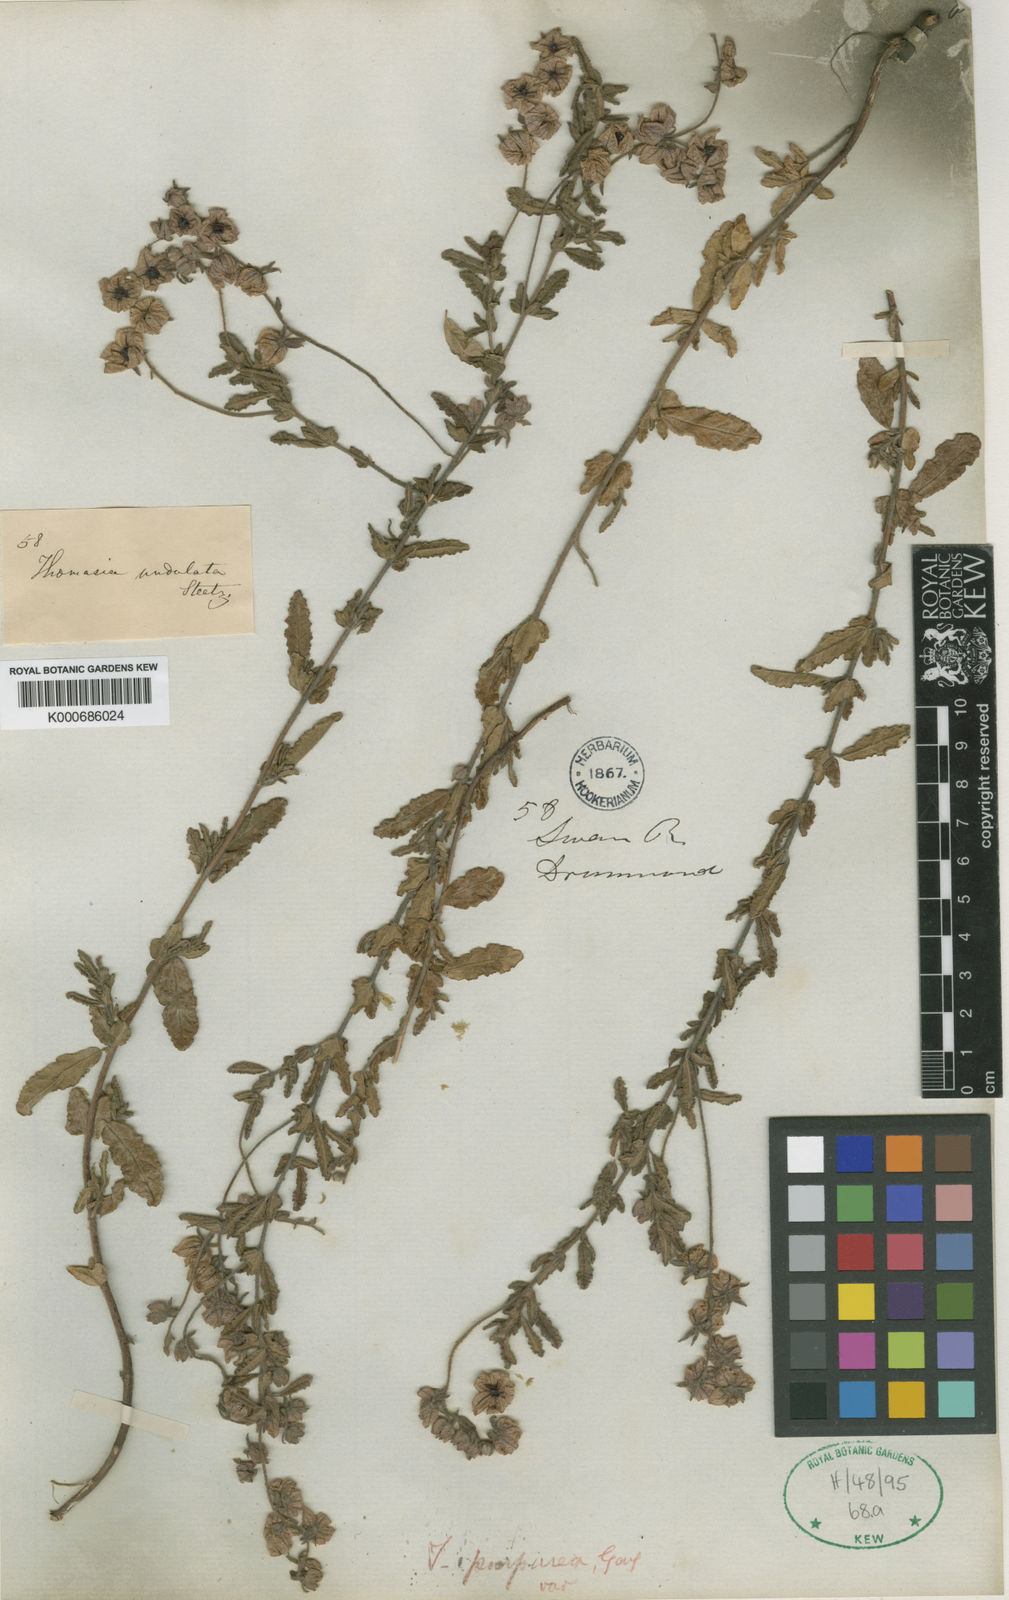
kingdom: Plantae
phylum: Tracheophyta
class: Magnoliopsida
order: Malvales
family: Malvaceae
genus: Thomasia
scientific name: Thomasia purpurea
